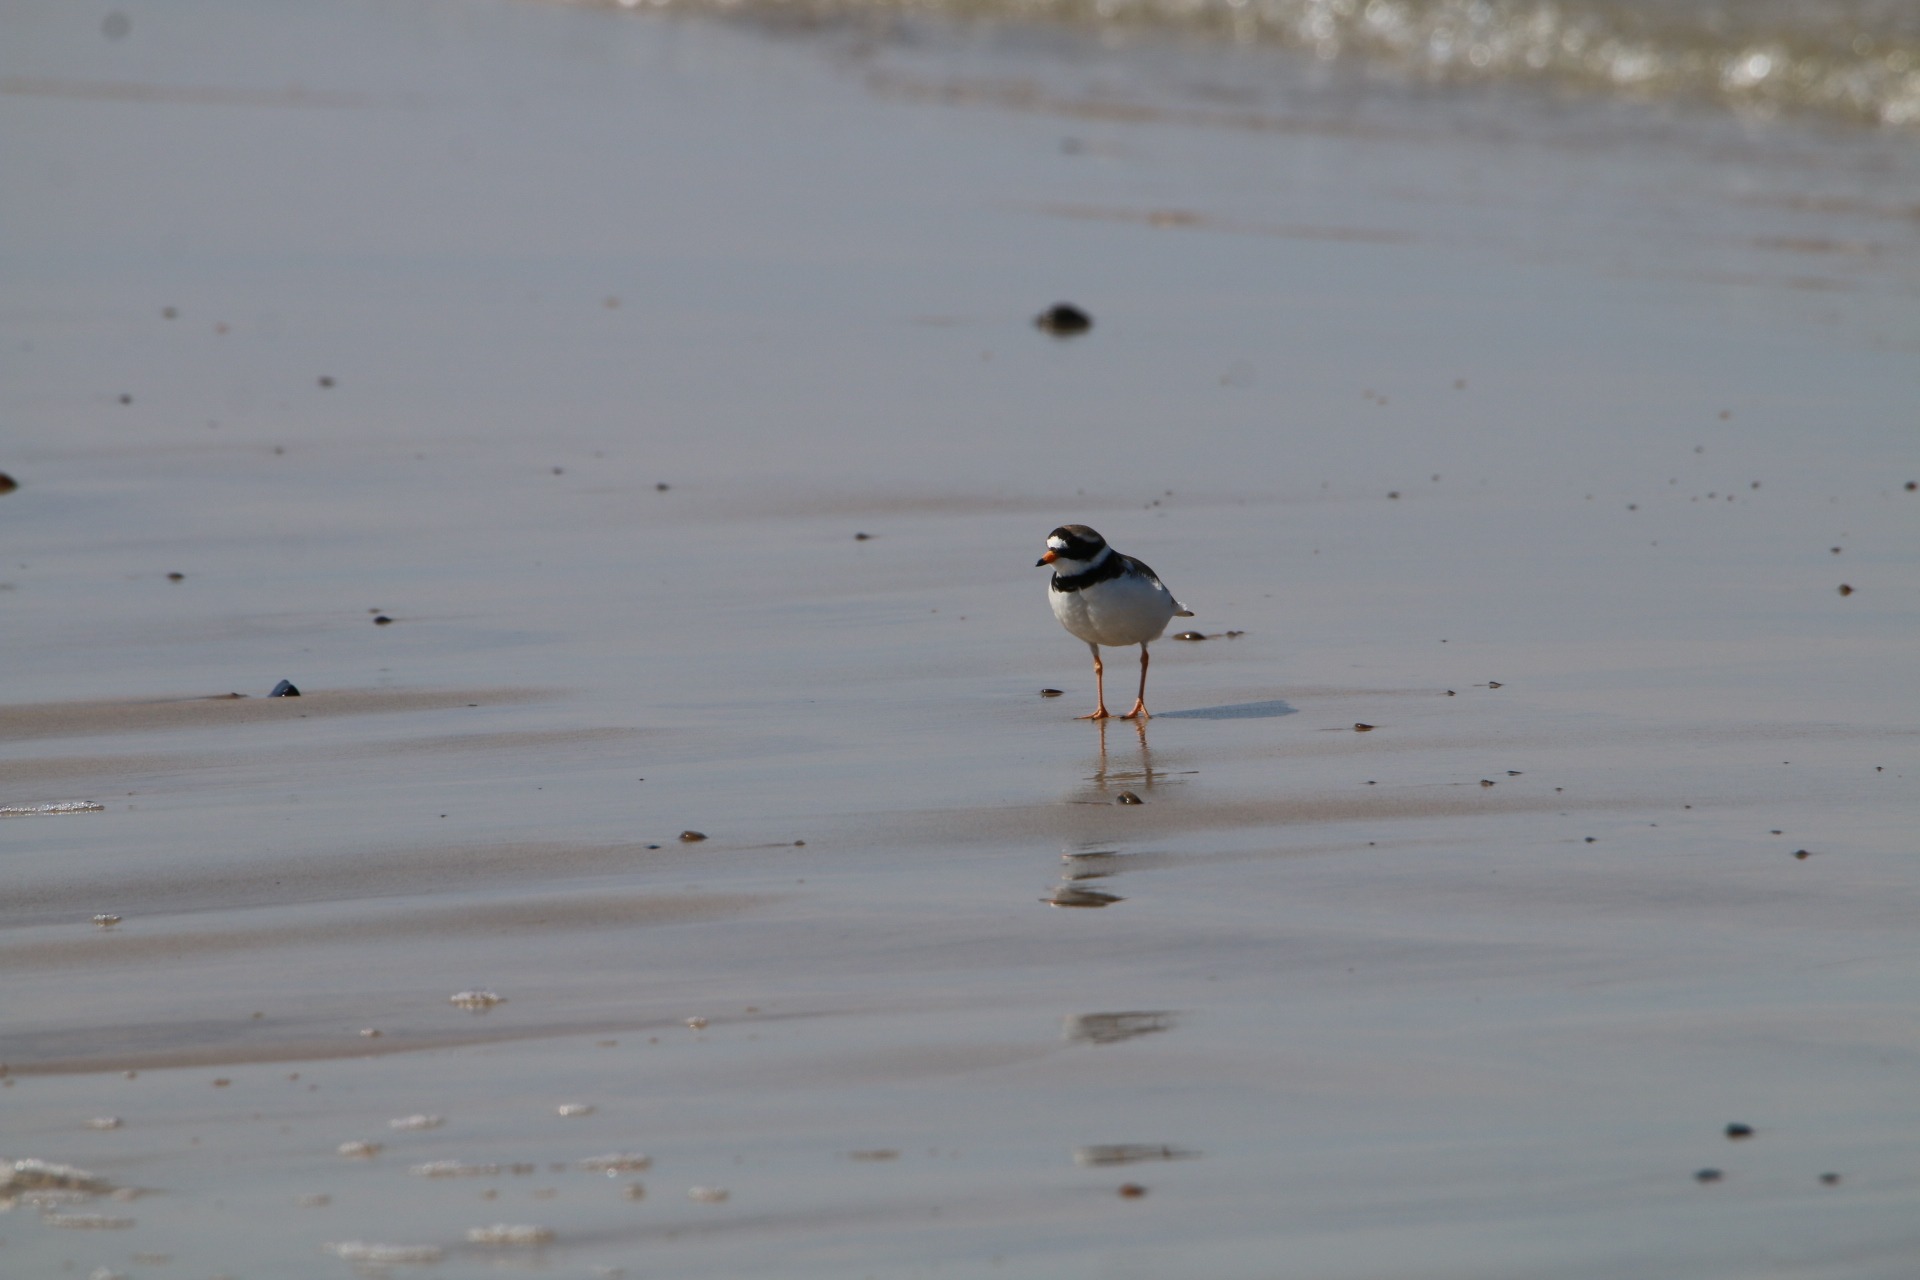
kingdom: Animalia
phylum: Chordata
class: Aves
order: Charadriiformes
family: Charadriidae
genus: Charadrius
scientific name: Charadrius hiaticula
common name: Stor præstekrave
